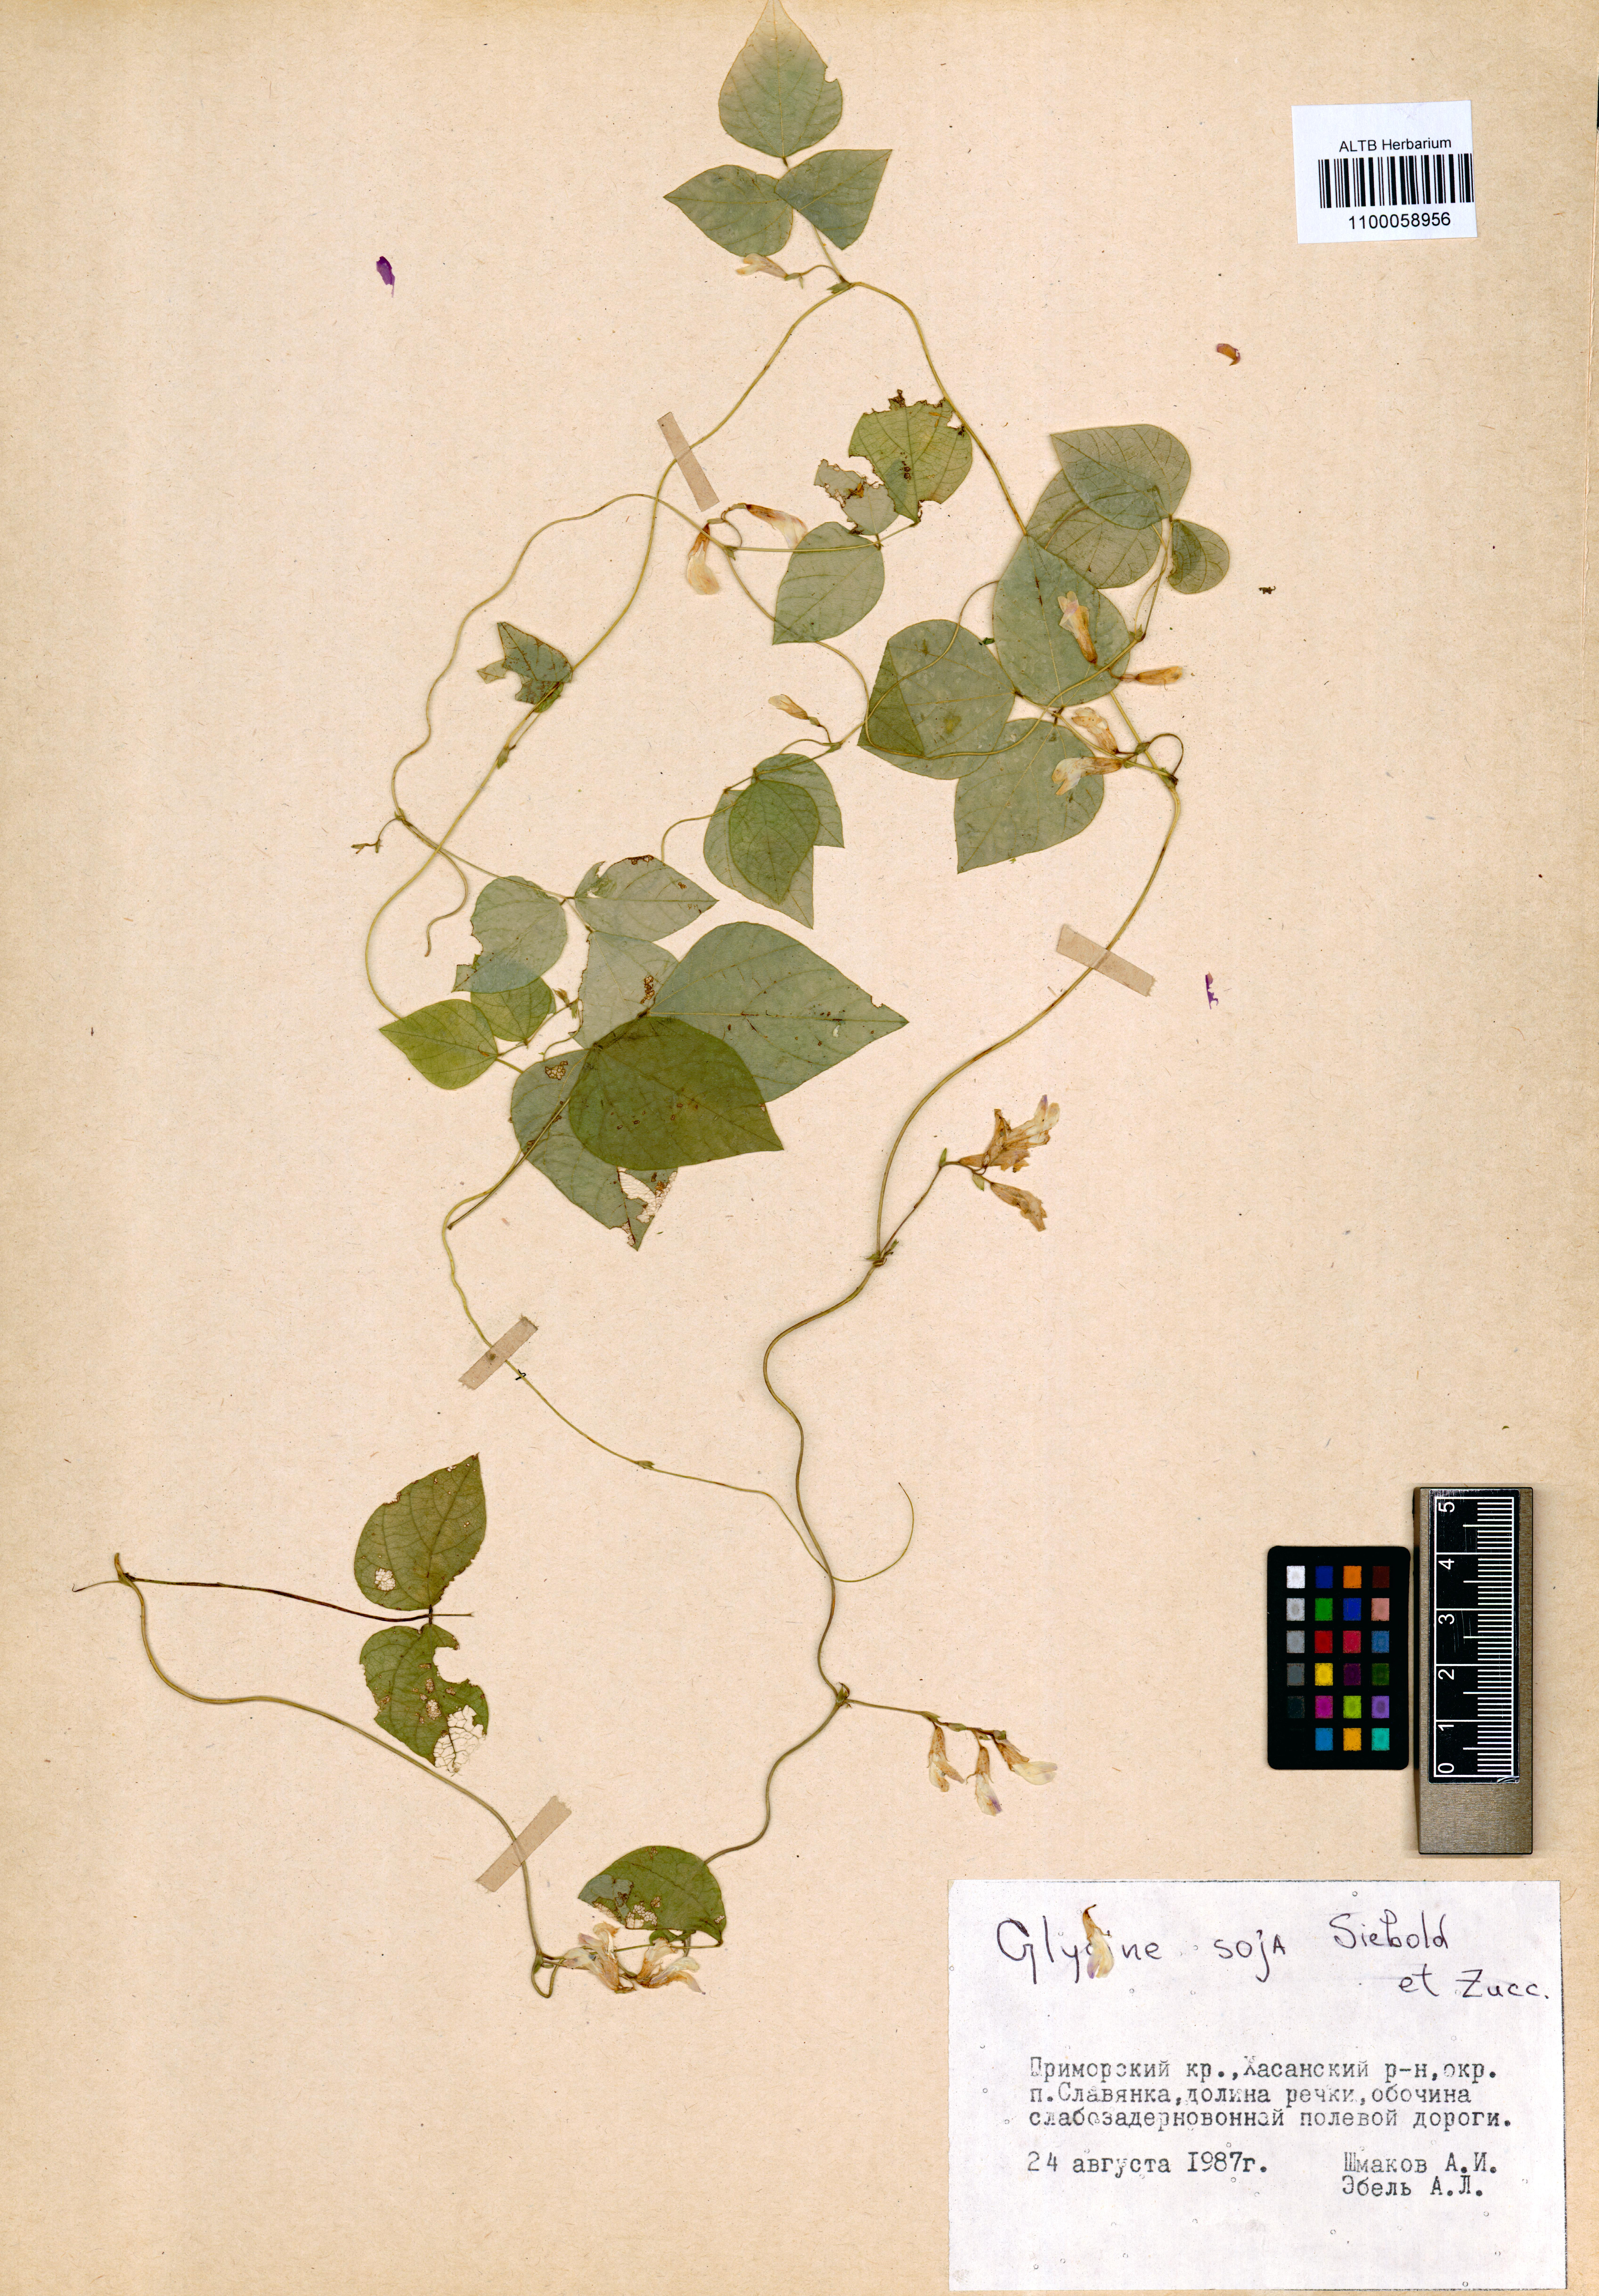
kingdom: Plantae
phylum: Tracheophyta
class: Magnoliopsida
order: Fabales
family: Fabaceae
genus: Glycine
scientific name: Glycine max
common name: Soya-bean
